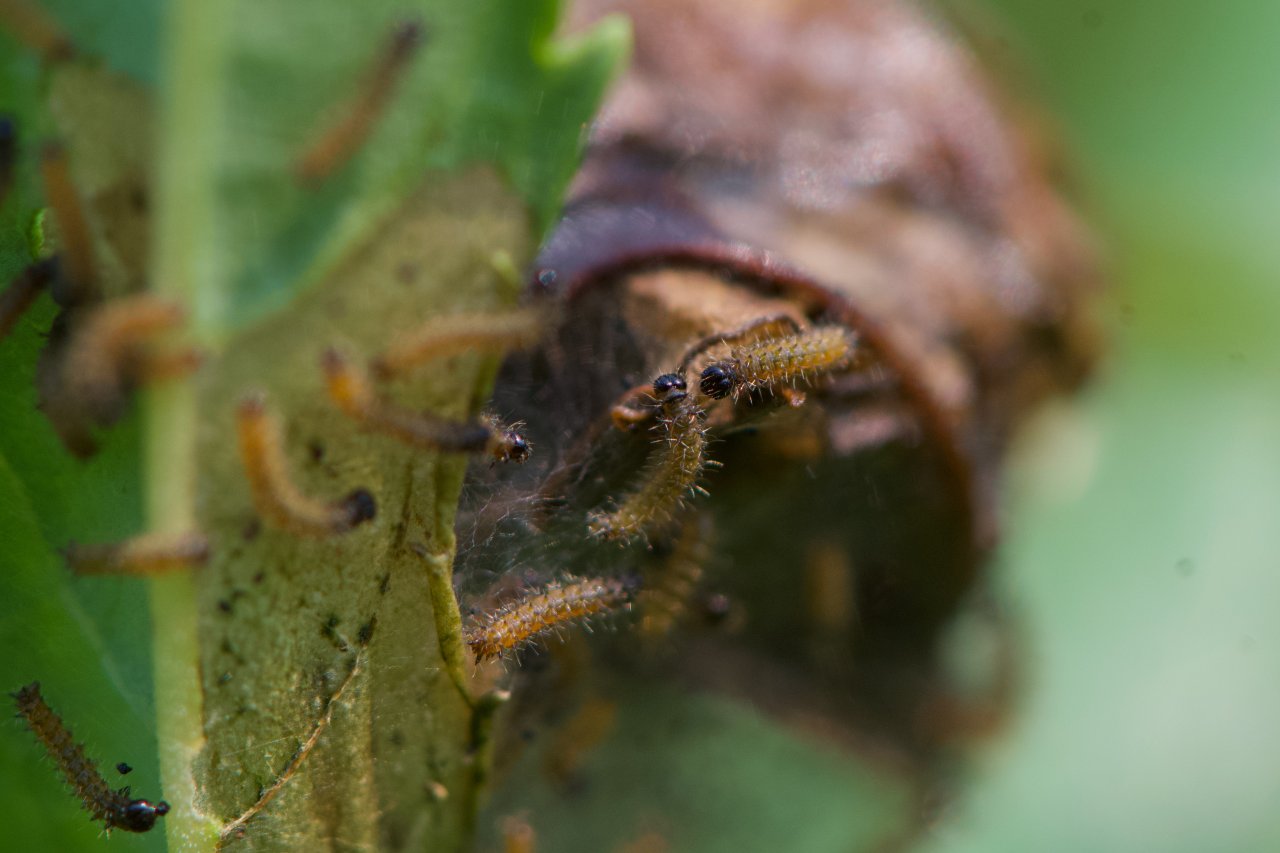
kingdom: Animalia
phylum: Arthropoda
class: Insecta
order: Lepidoptera
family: Nymphalidae
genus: Euphydryas
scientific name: Euphydryas phaeton
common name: Baltimore Checkerspot
